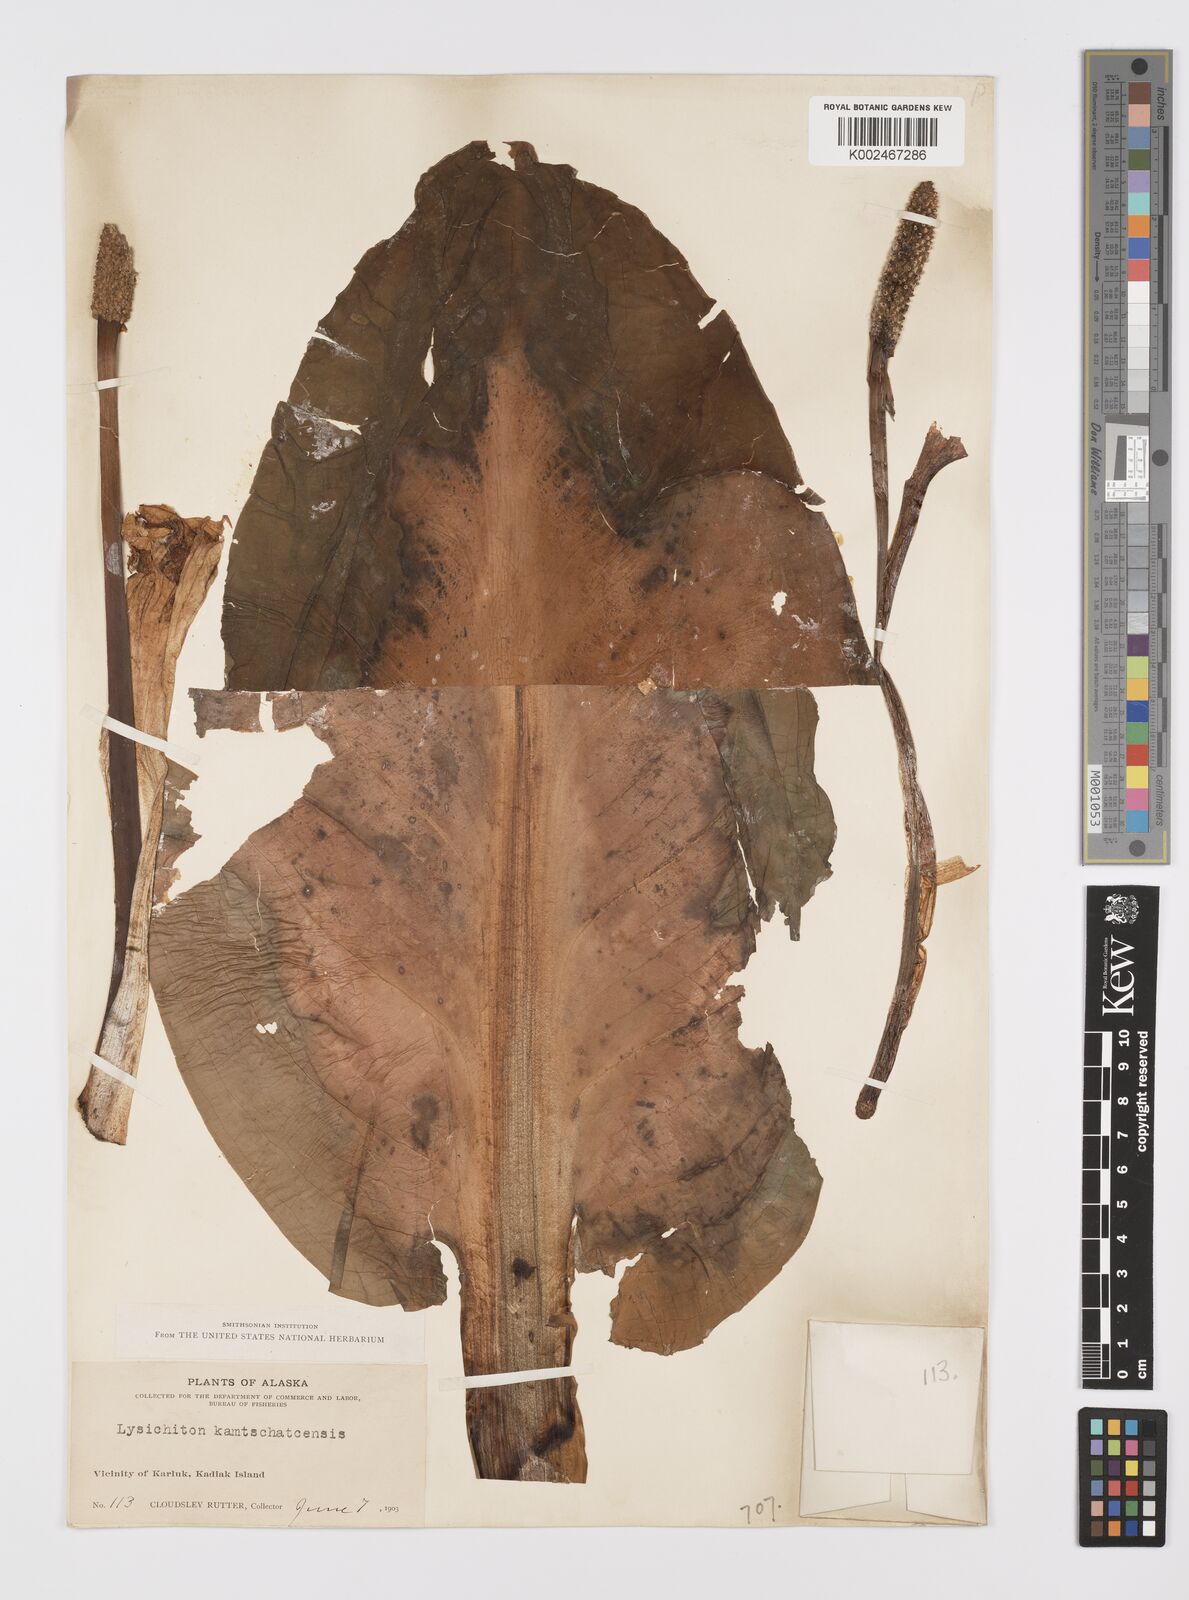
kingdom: Plantae
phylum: Tracheophyta
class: Liliopsida
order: Alismatales
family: Araceae
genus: Lysichiton
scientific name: Lysichiton americanus
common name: American skunk cabbage
